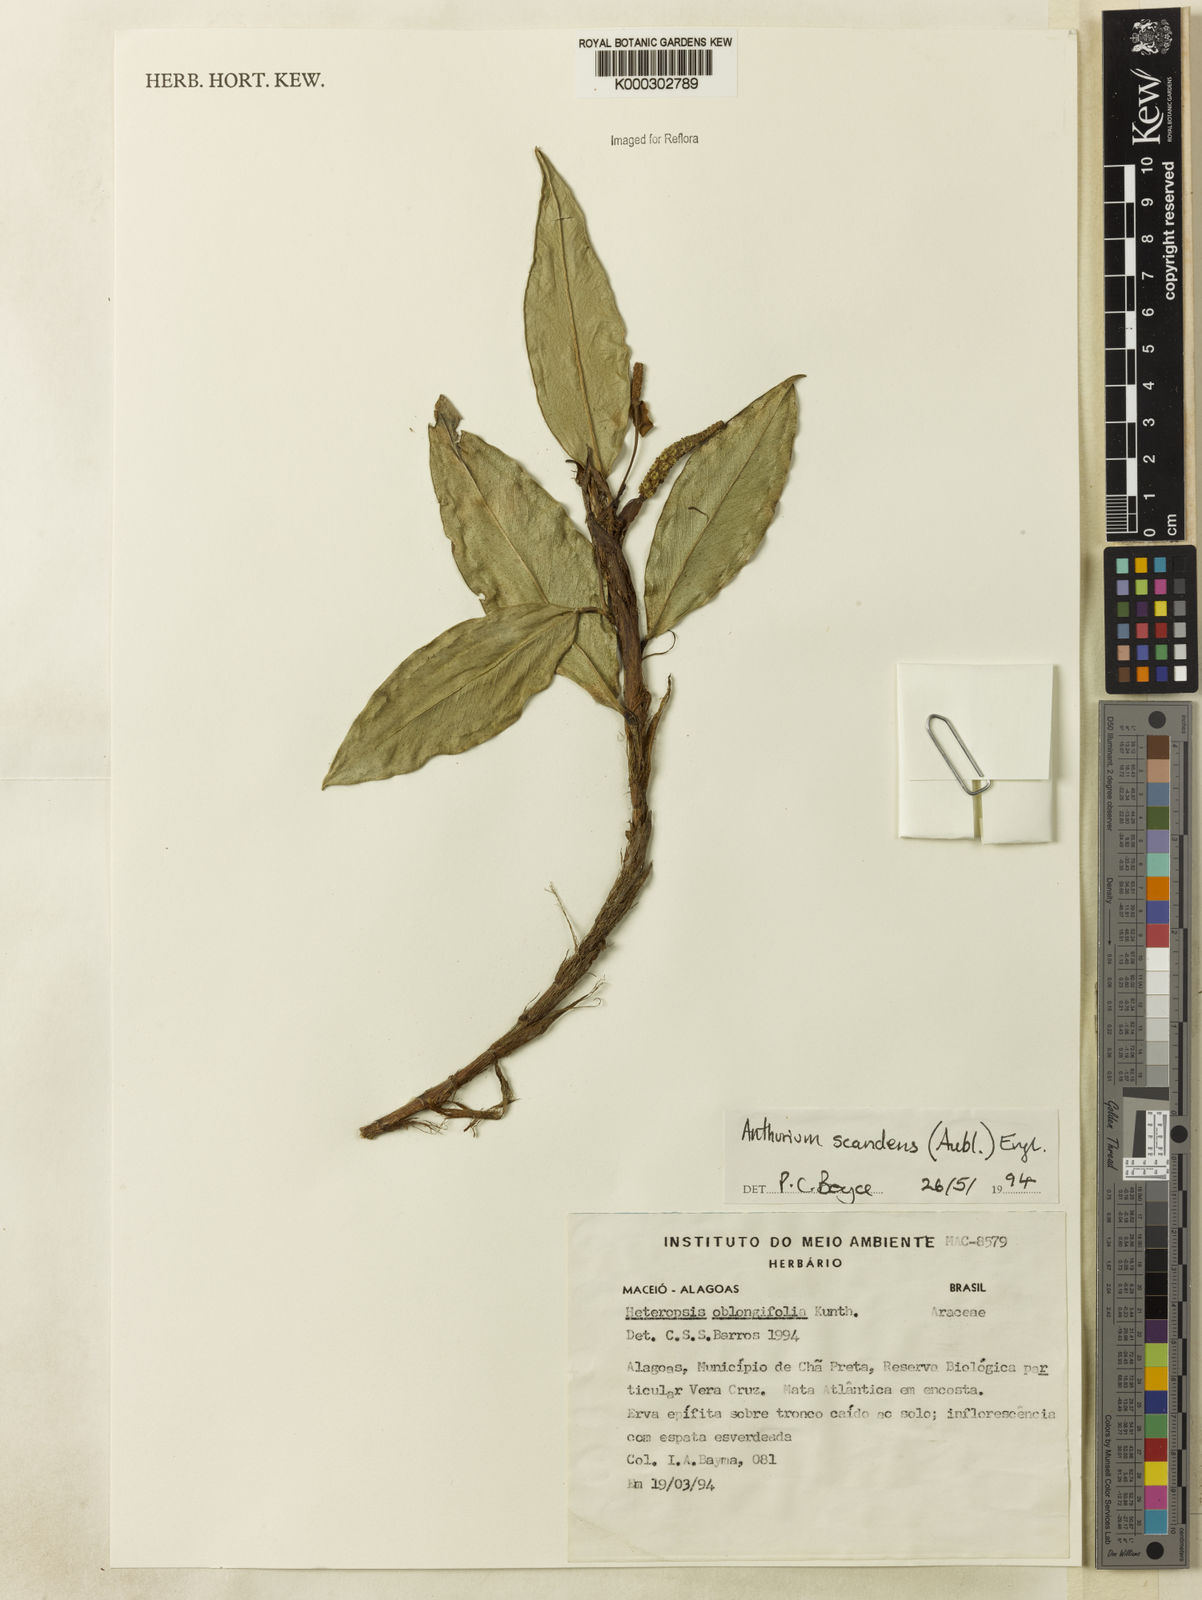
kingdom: Plantae
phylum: Tracheophyta
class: Liliopsida
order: Alismatales
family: Araceae
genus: Anthurium
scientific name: Anthurium scandens
